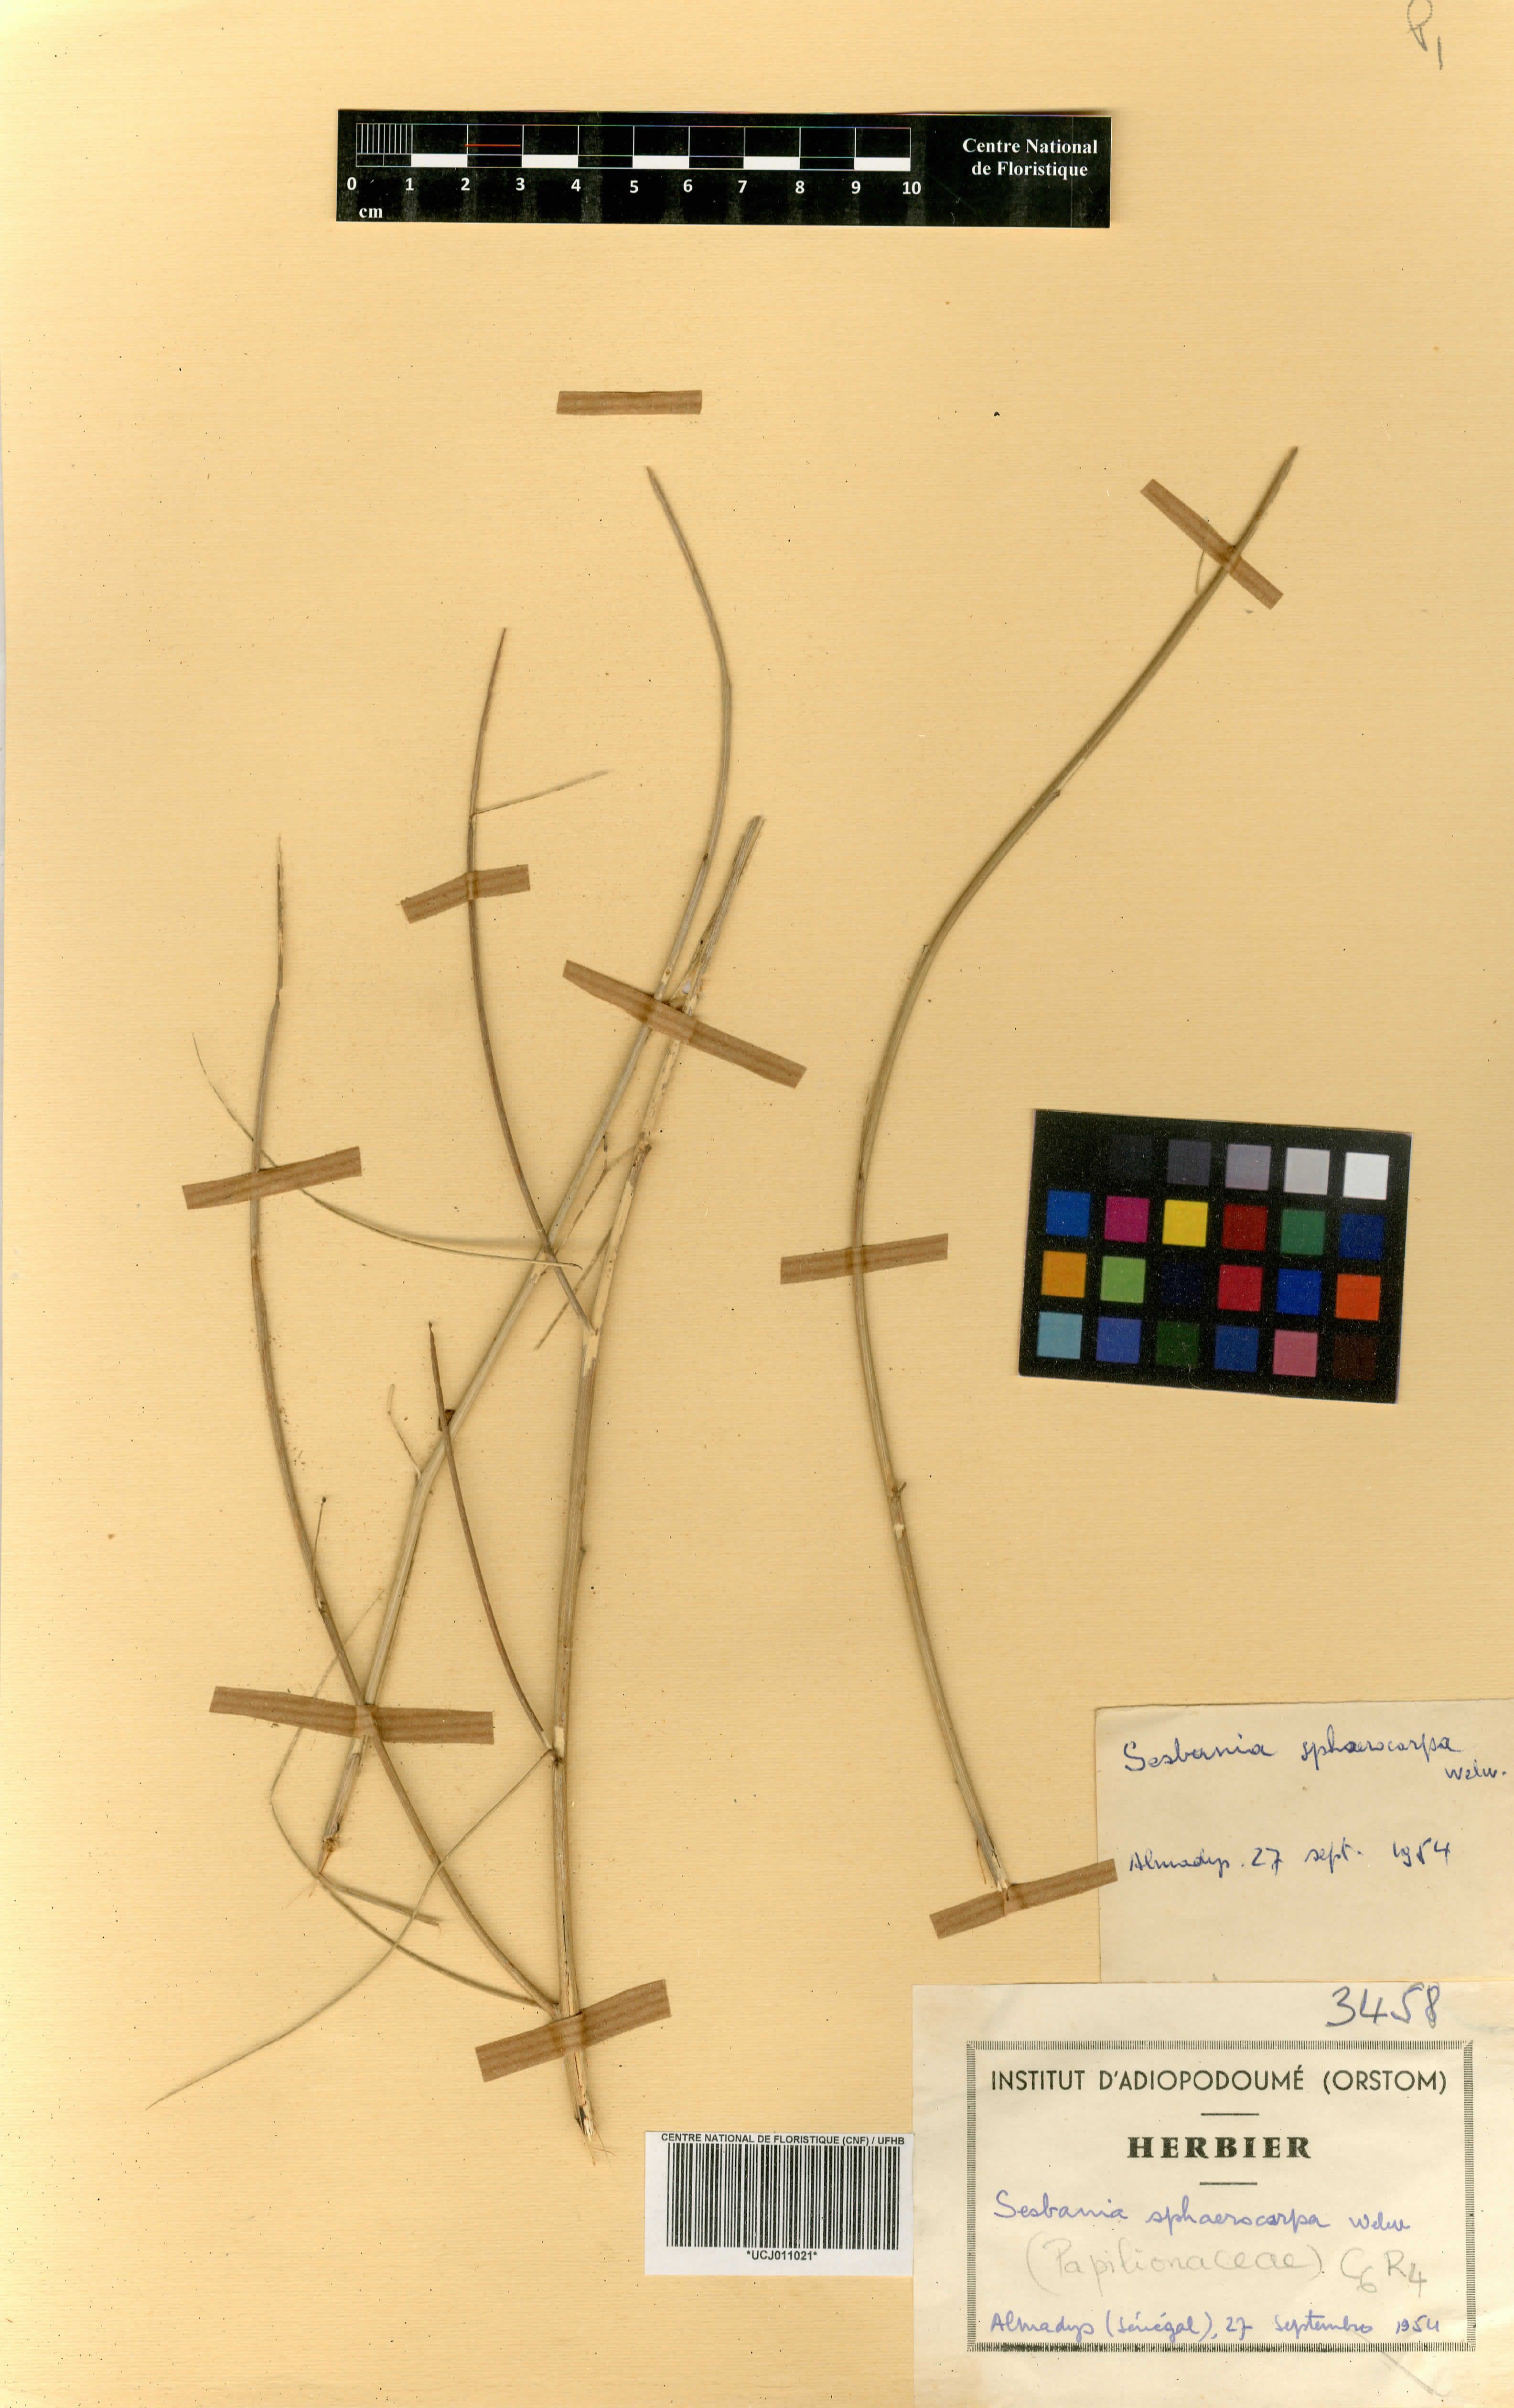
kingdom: Plantae
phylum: Tracheophyta
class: Magnoliopsida
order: Fabales
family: Fabaceae
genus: Sesbania
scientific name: Sesbania sphaerocarpa
